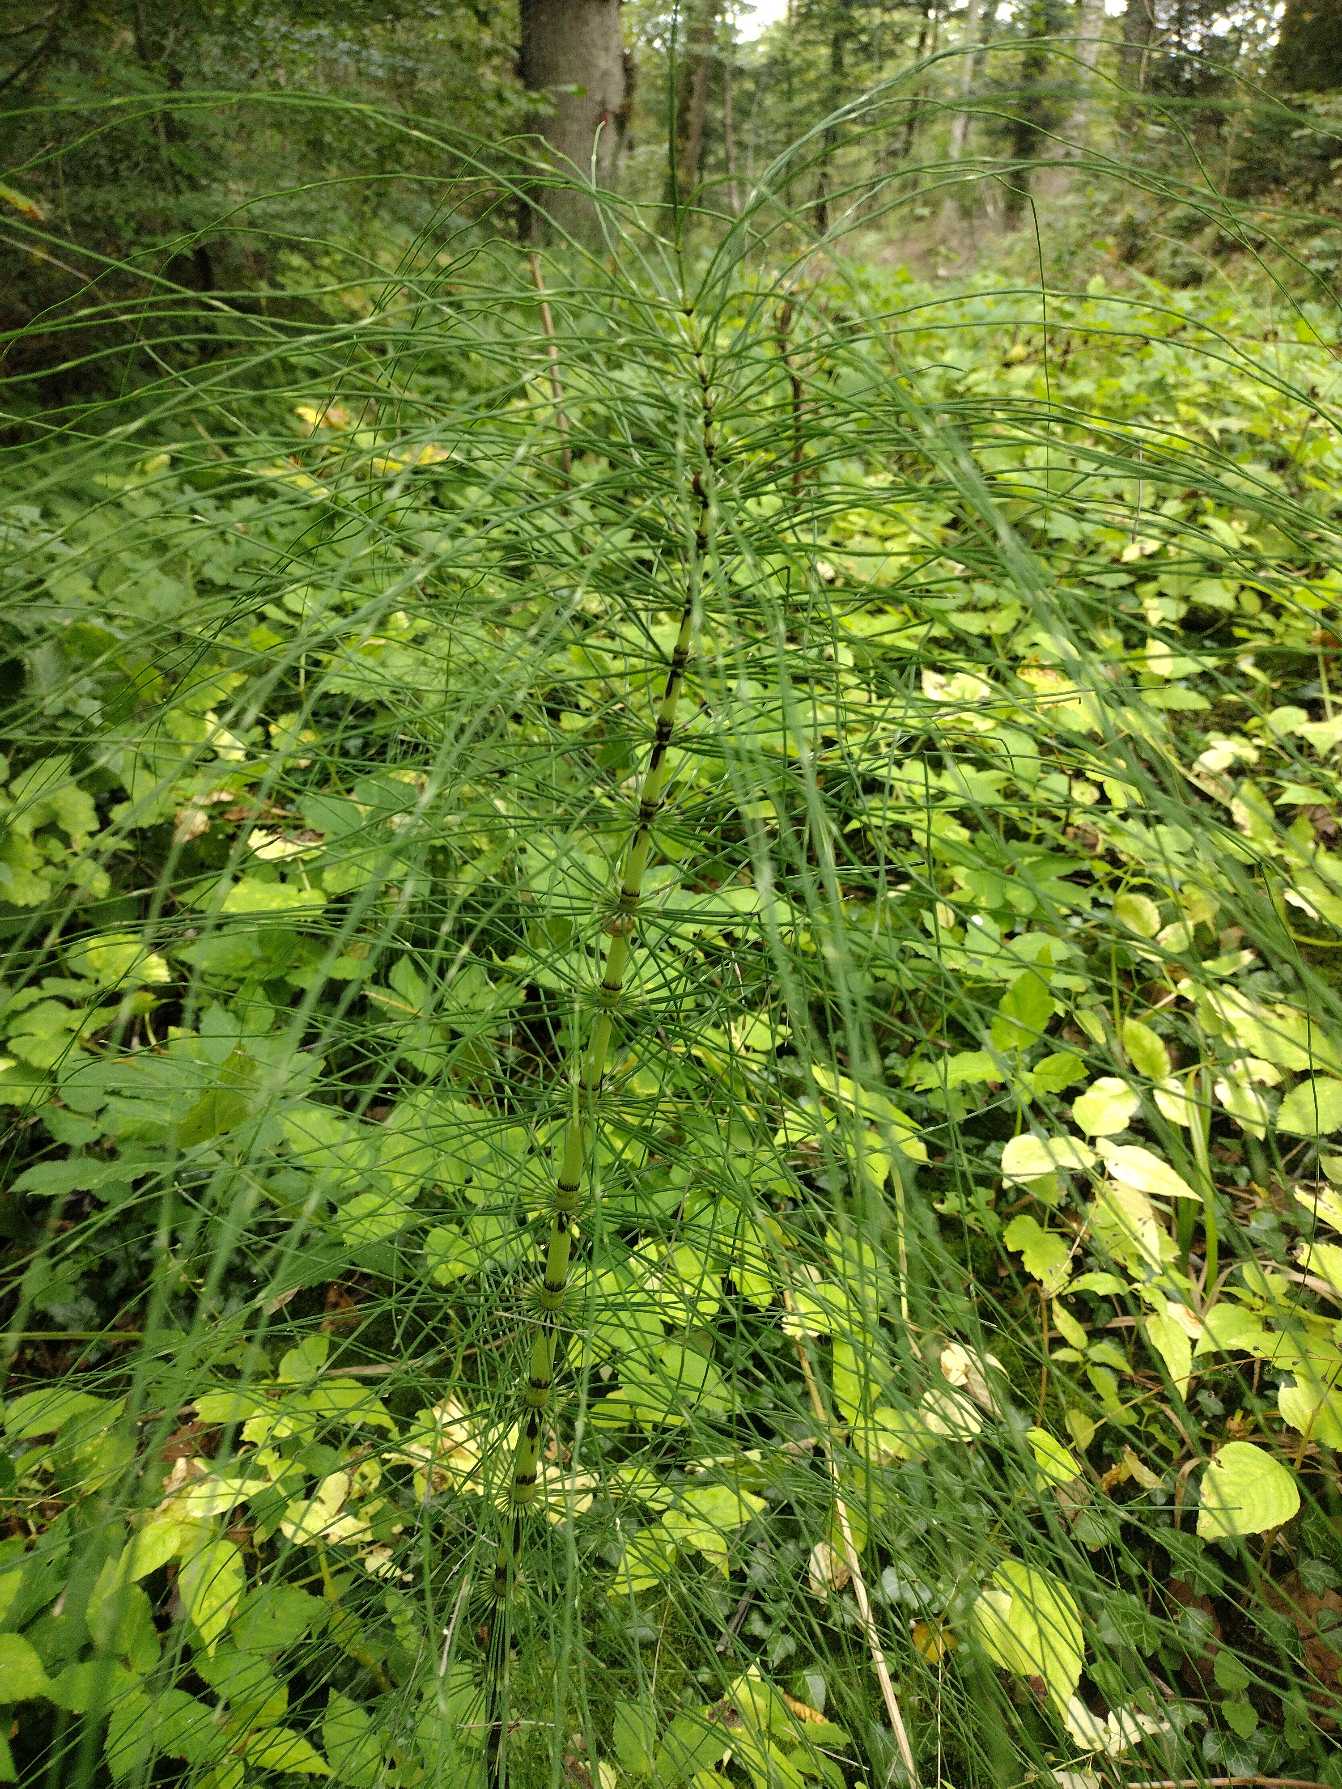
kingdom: Plantae
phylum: Tracheophyta
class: Polypodiopsida
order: Equisetales
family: Equisetaceae
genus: Equisetum
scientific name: Equisetum telmateia
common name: Elfenbens-padderok
